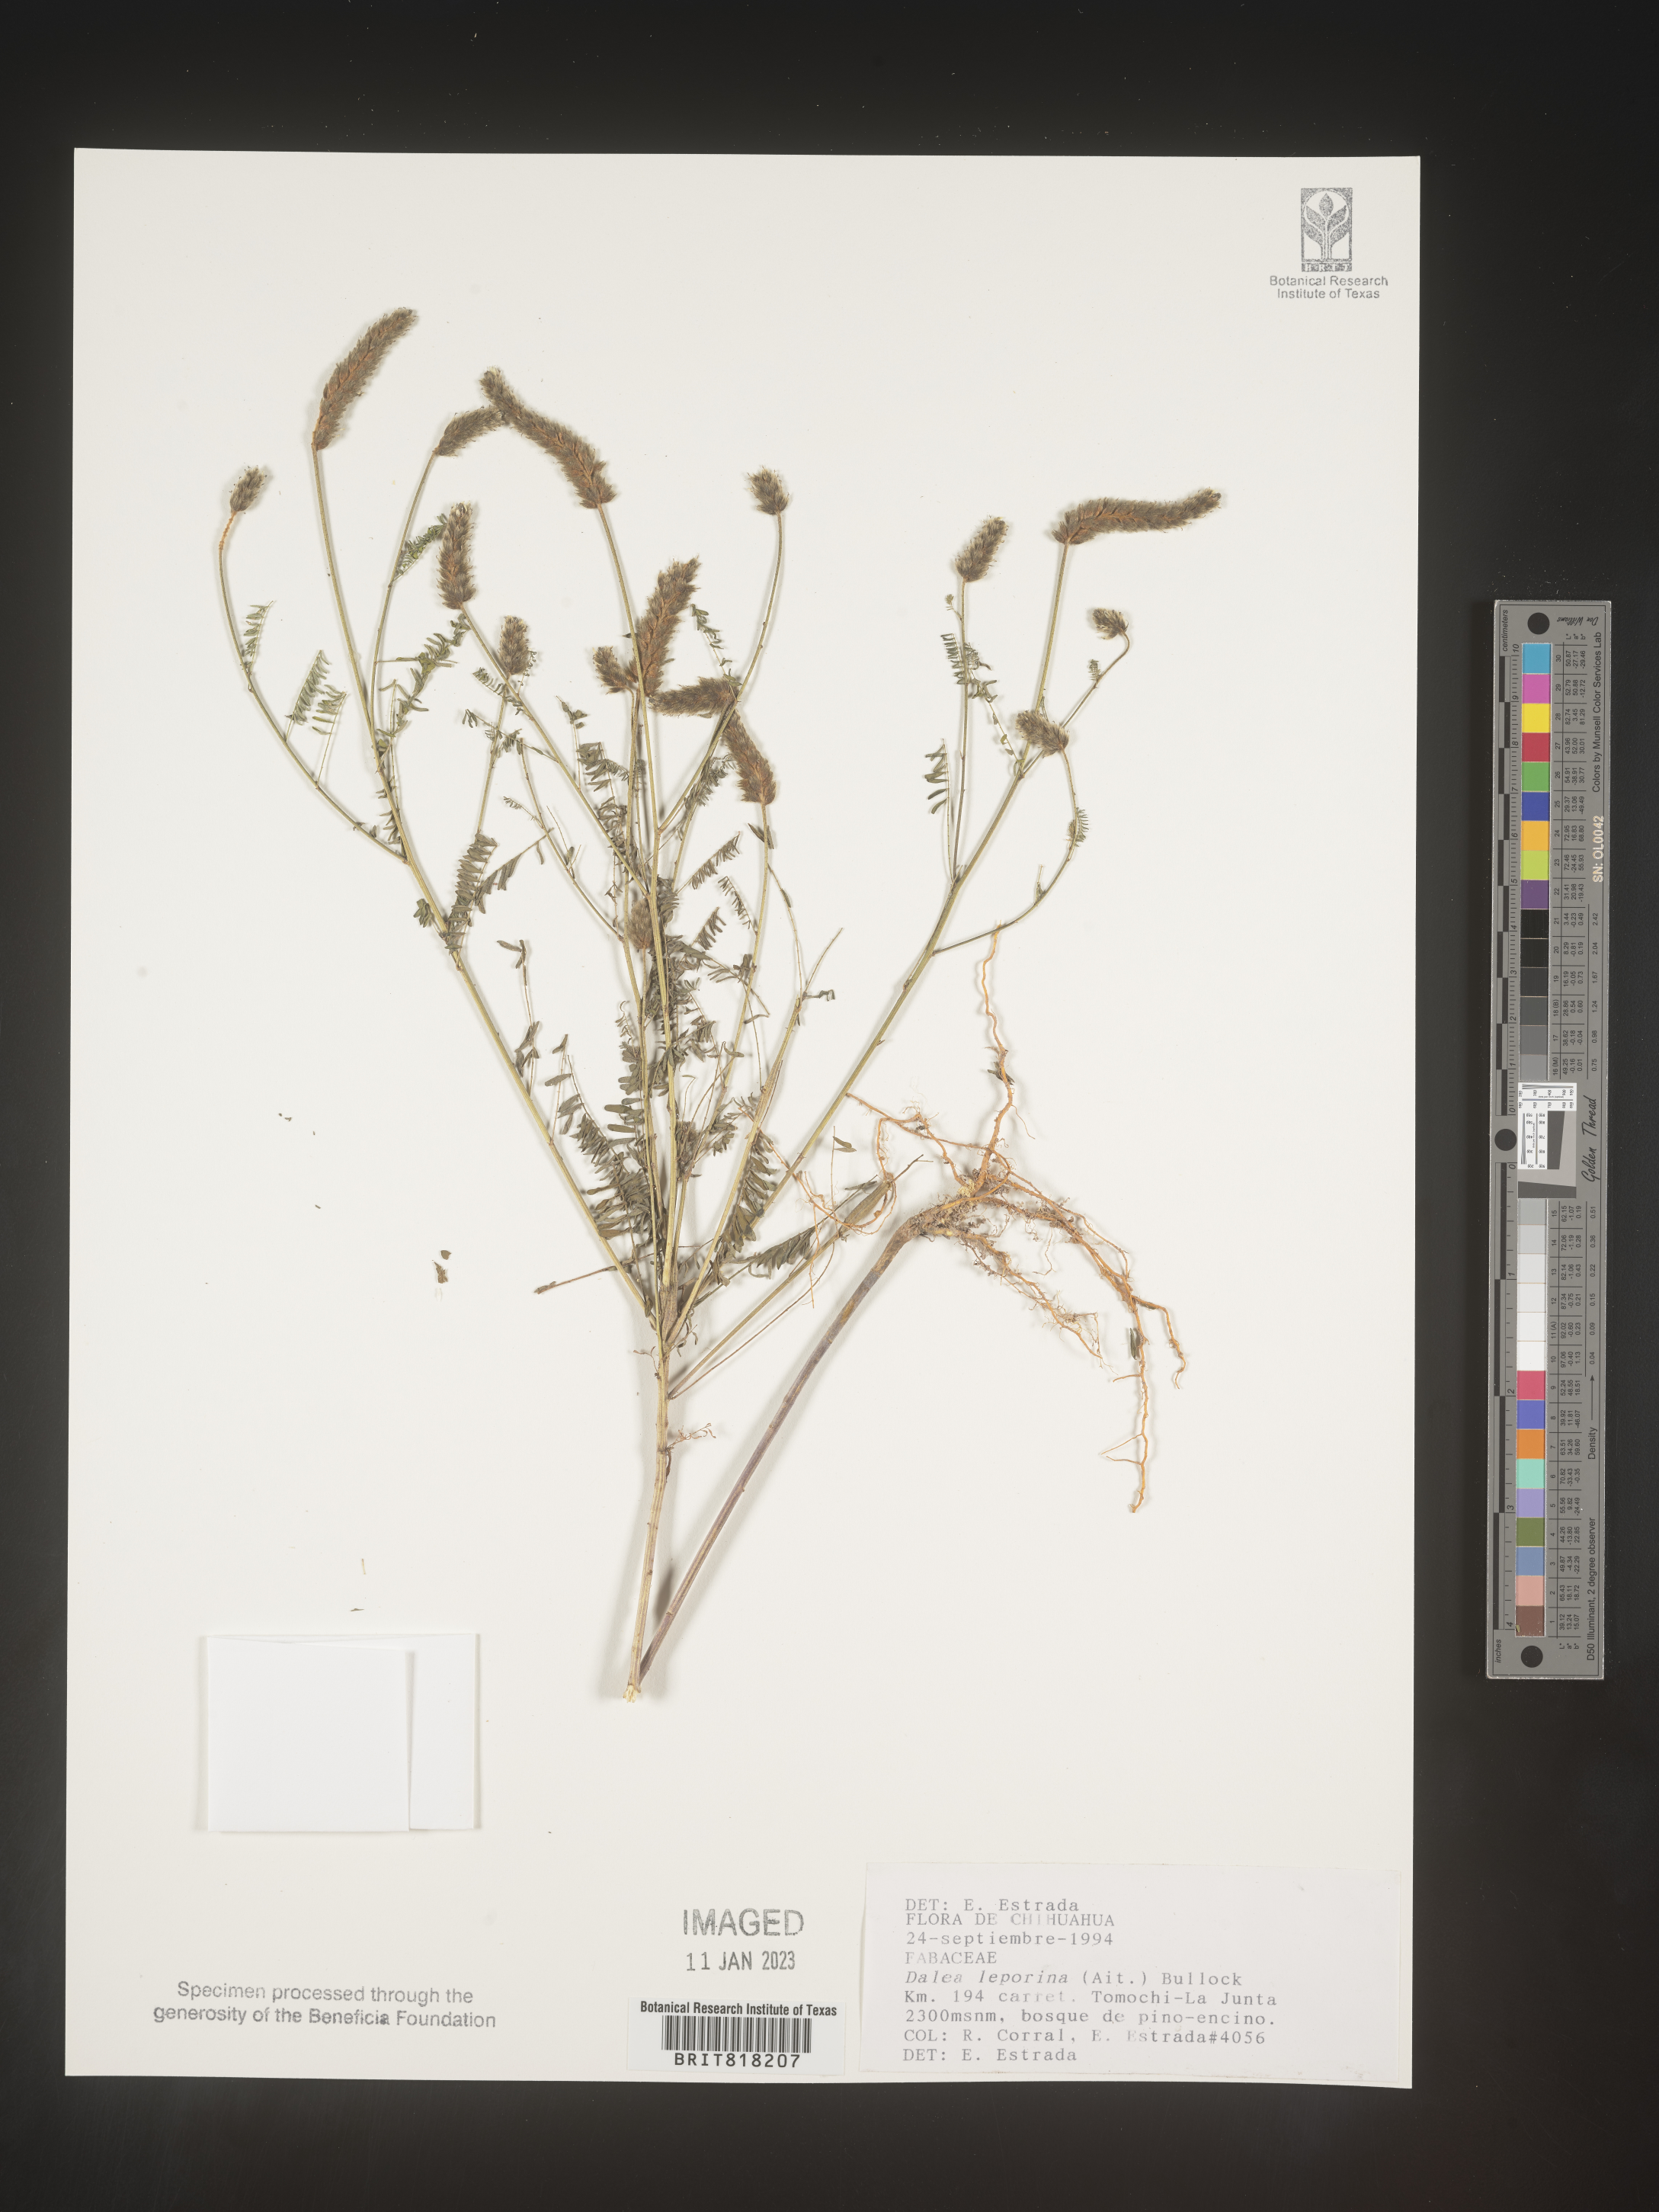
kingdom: Plantae
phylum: Tracheophyta
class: Magnoliopsida
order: Fabales
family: Fabaceae
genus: Dalea
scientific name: Dalea
